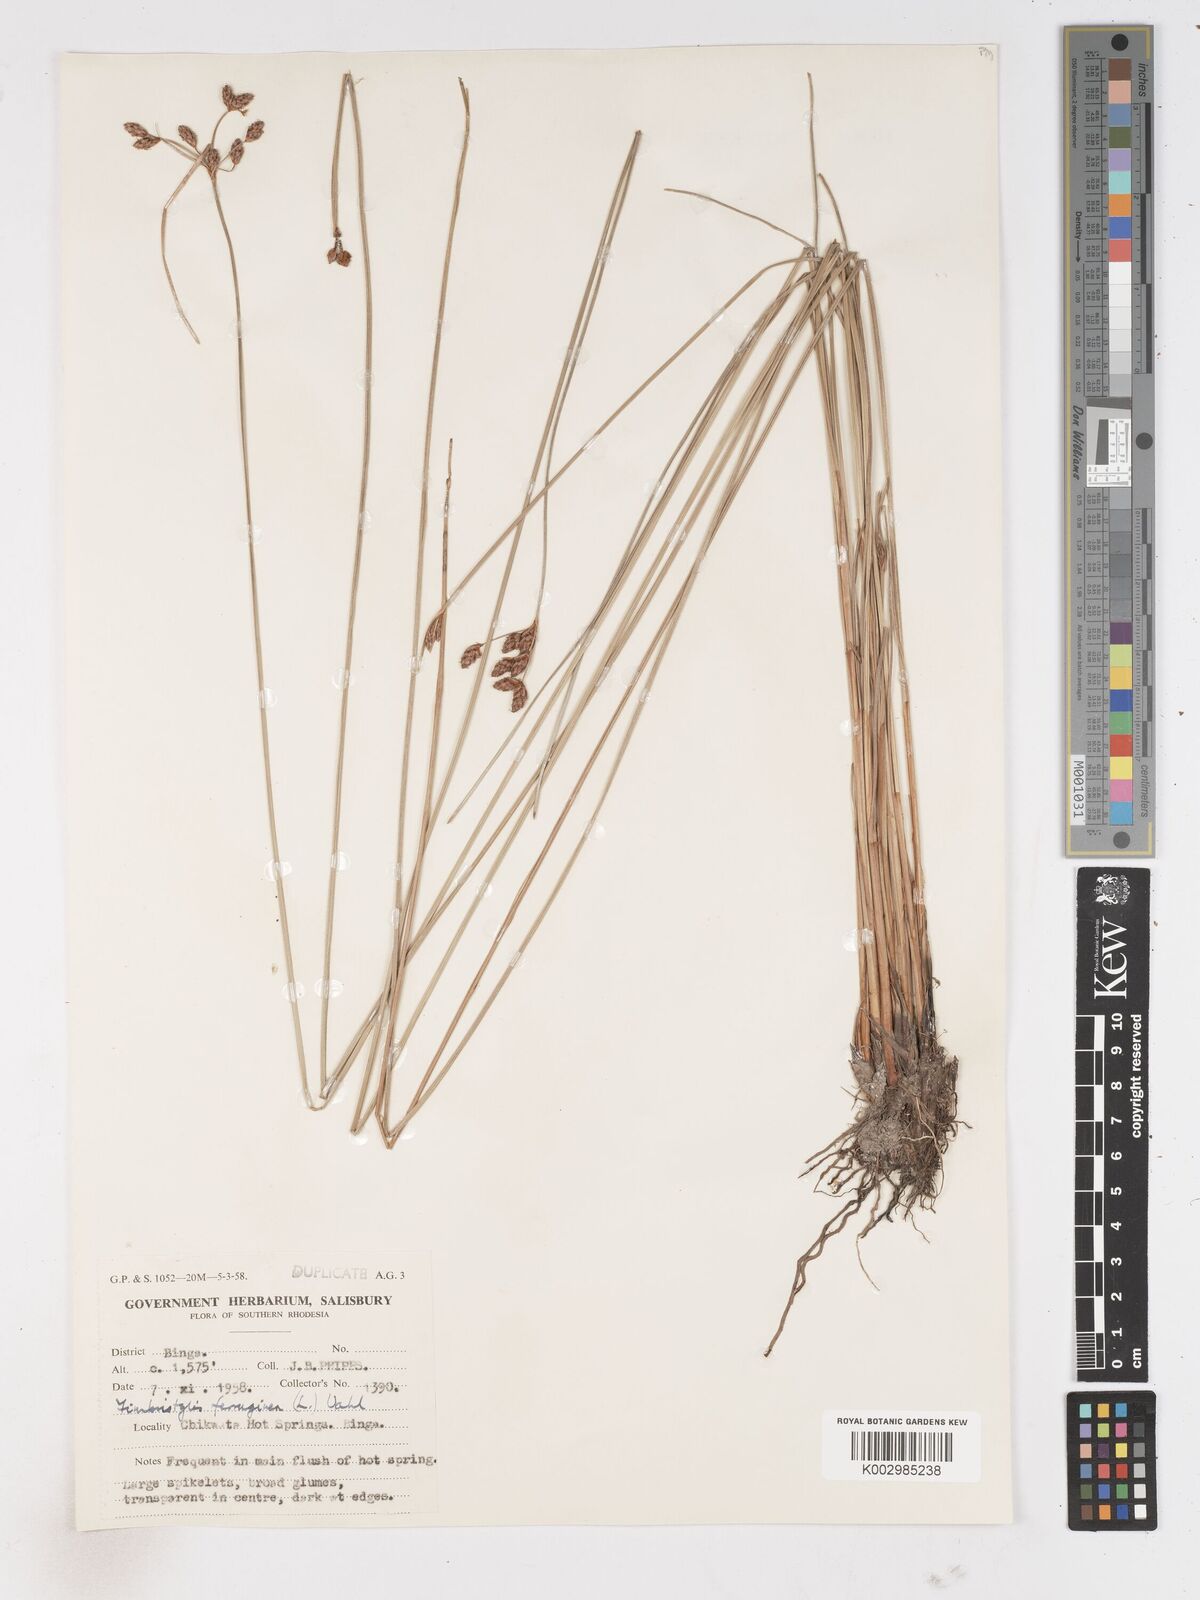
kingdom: Plantae
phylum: Tracheophyta
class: Liliopsida
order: Poales
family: Cyperaceae
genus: Fimbristylis
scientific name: Fimbristylis
